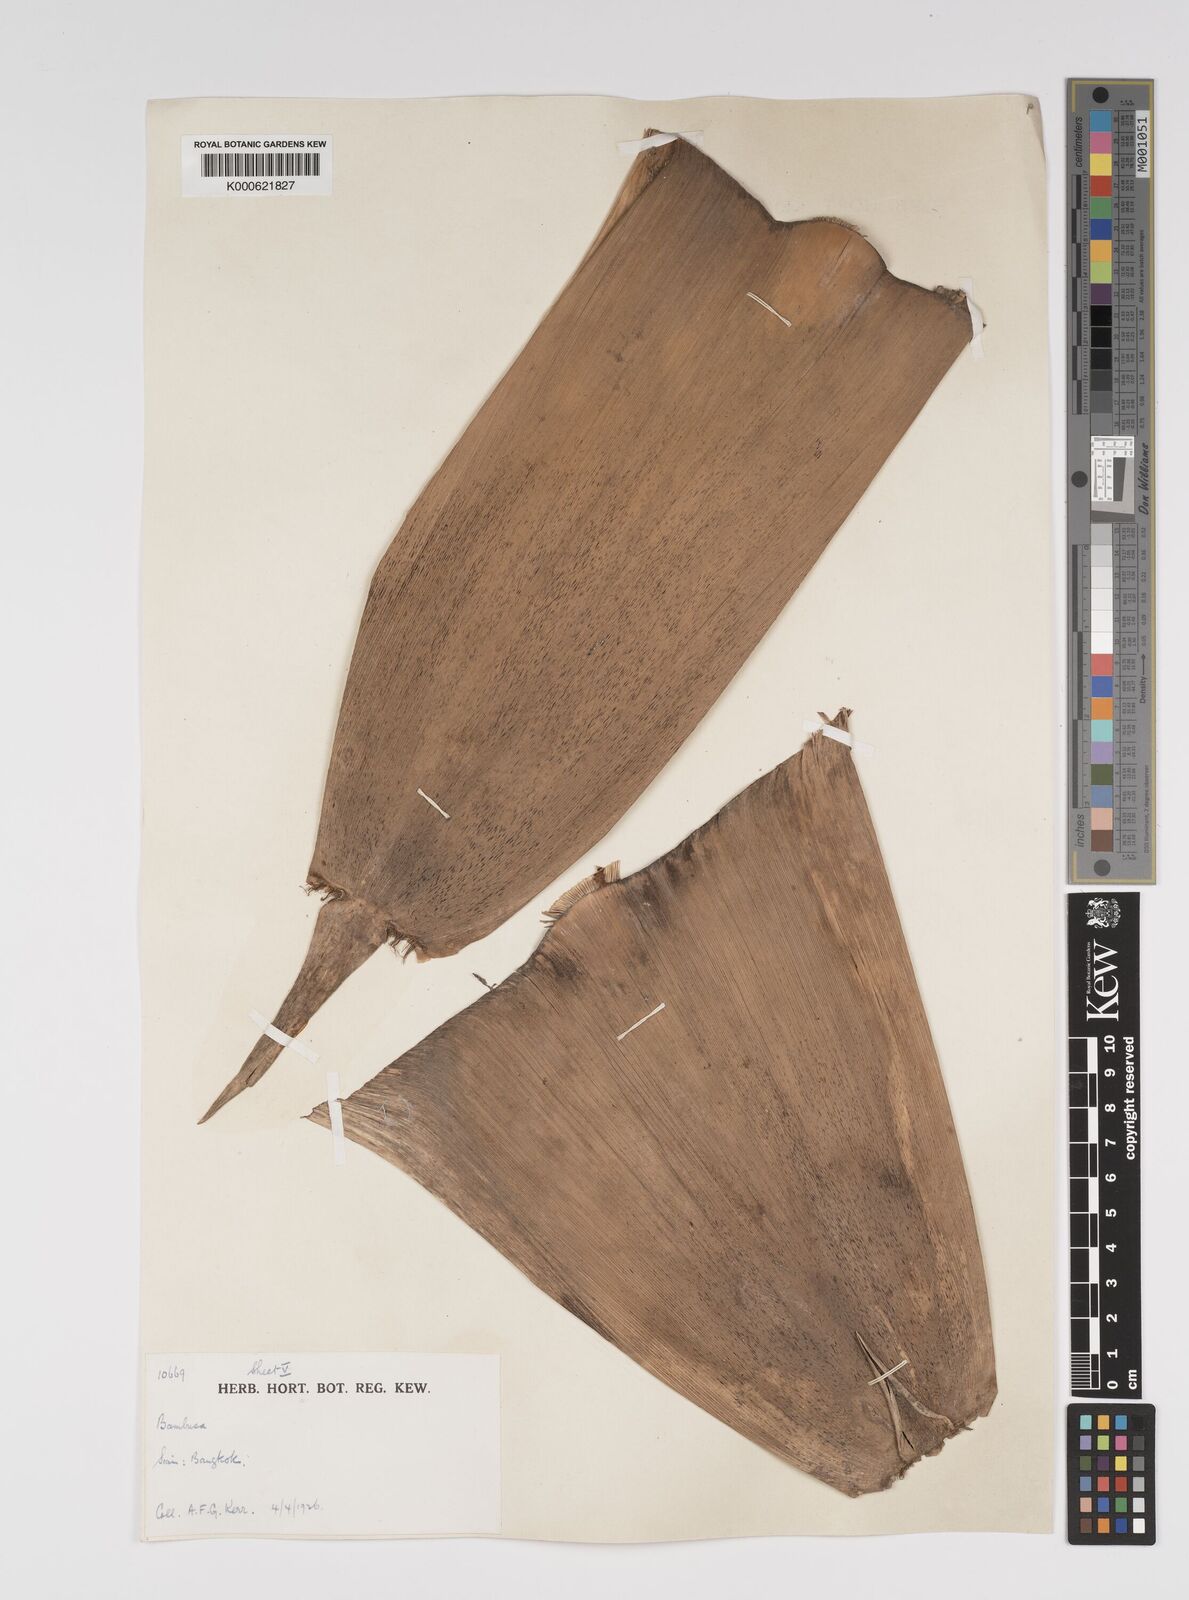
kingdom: Plantae
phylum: Tracheophyta
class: Liliopsida
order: Poales
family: Poaceae
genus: Bambusa
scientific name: Bambusa spinosa
